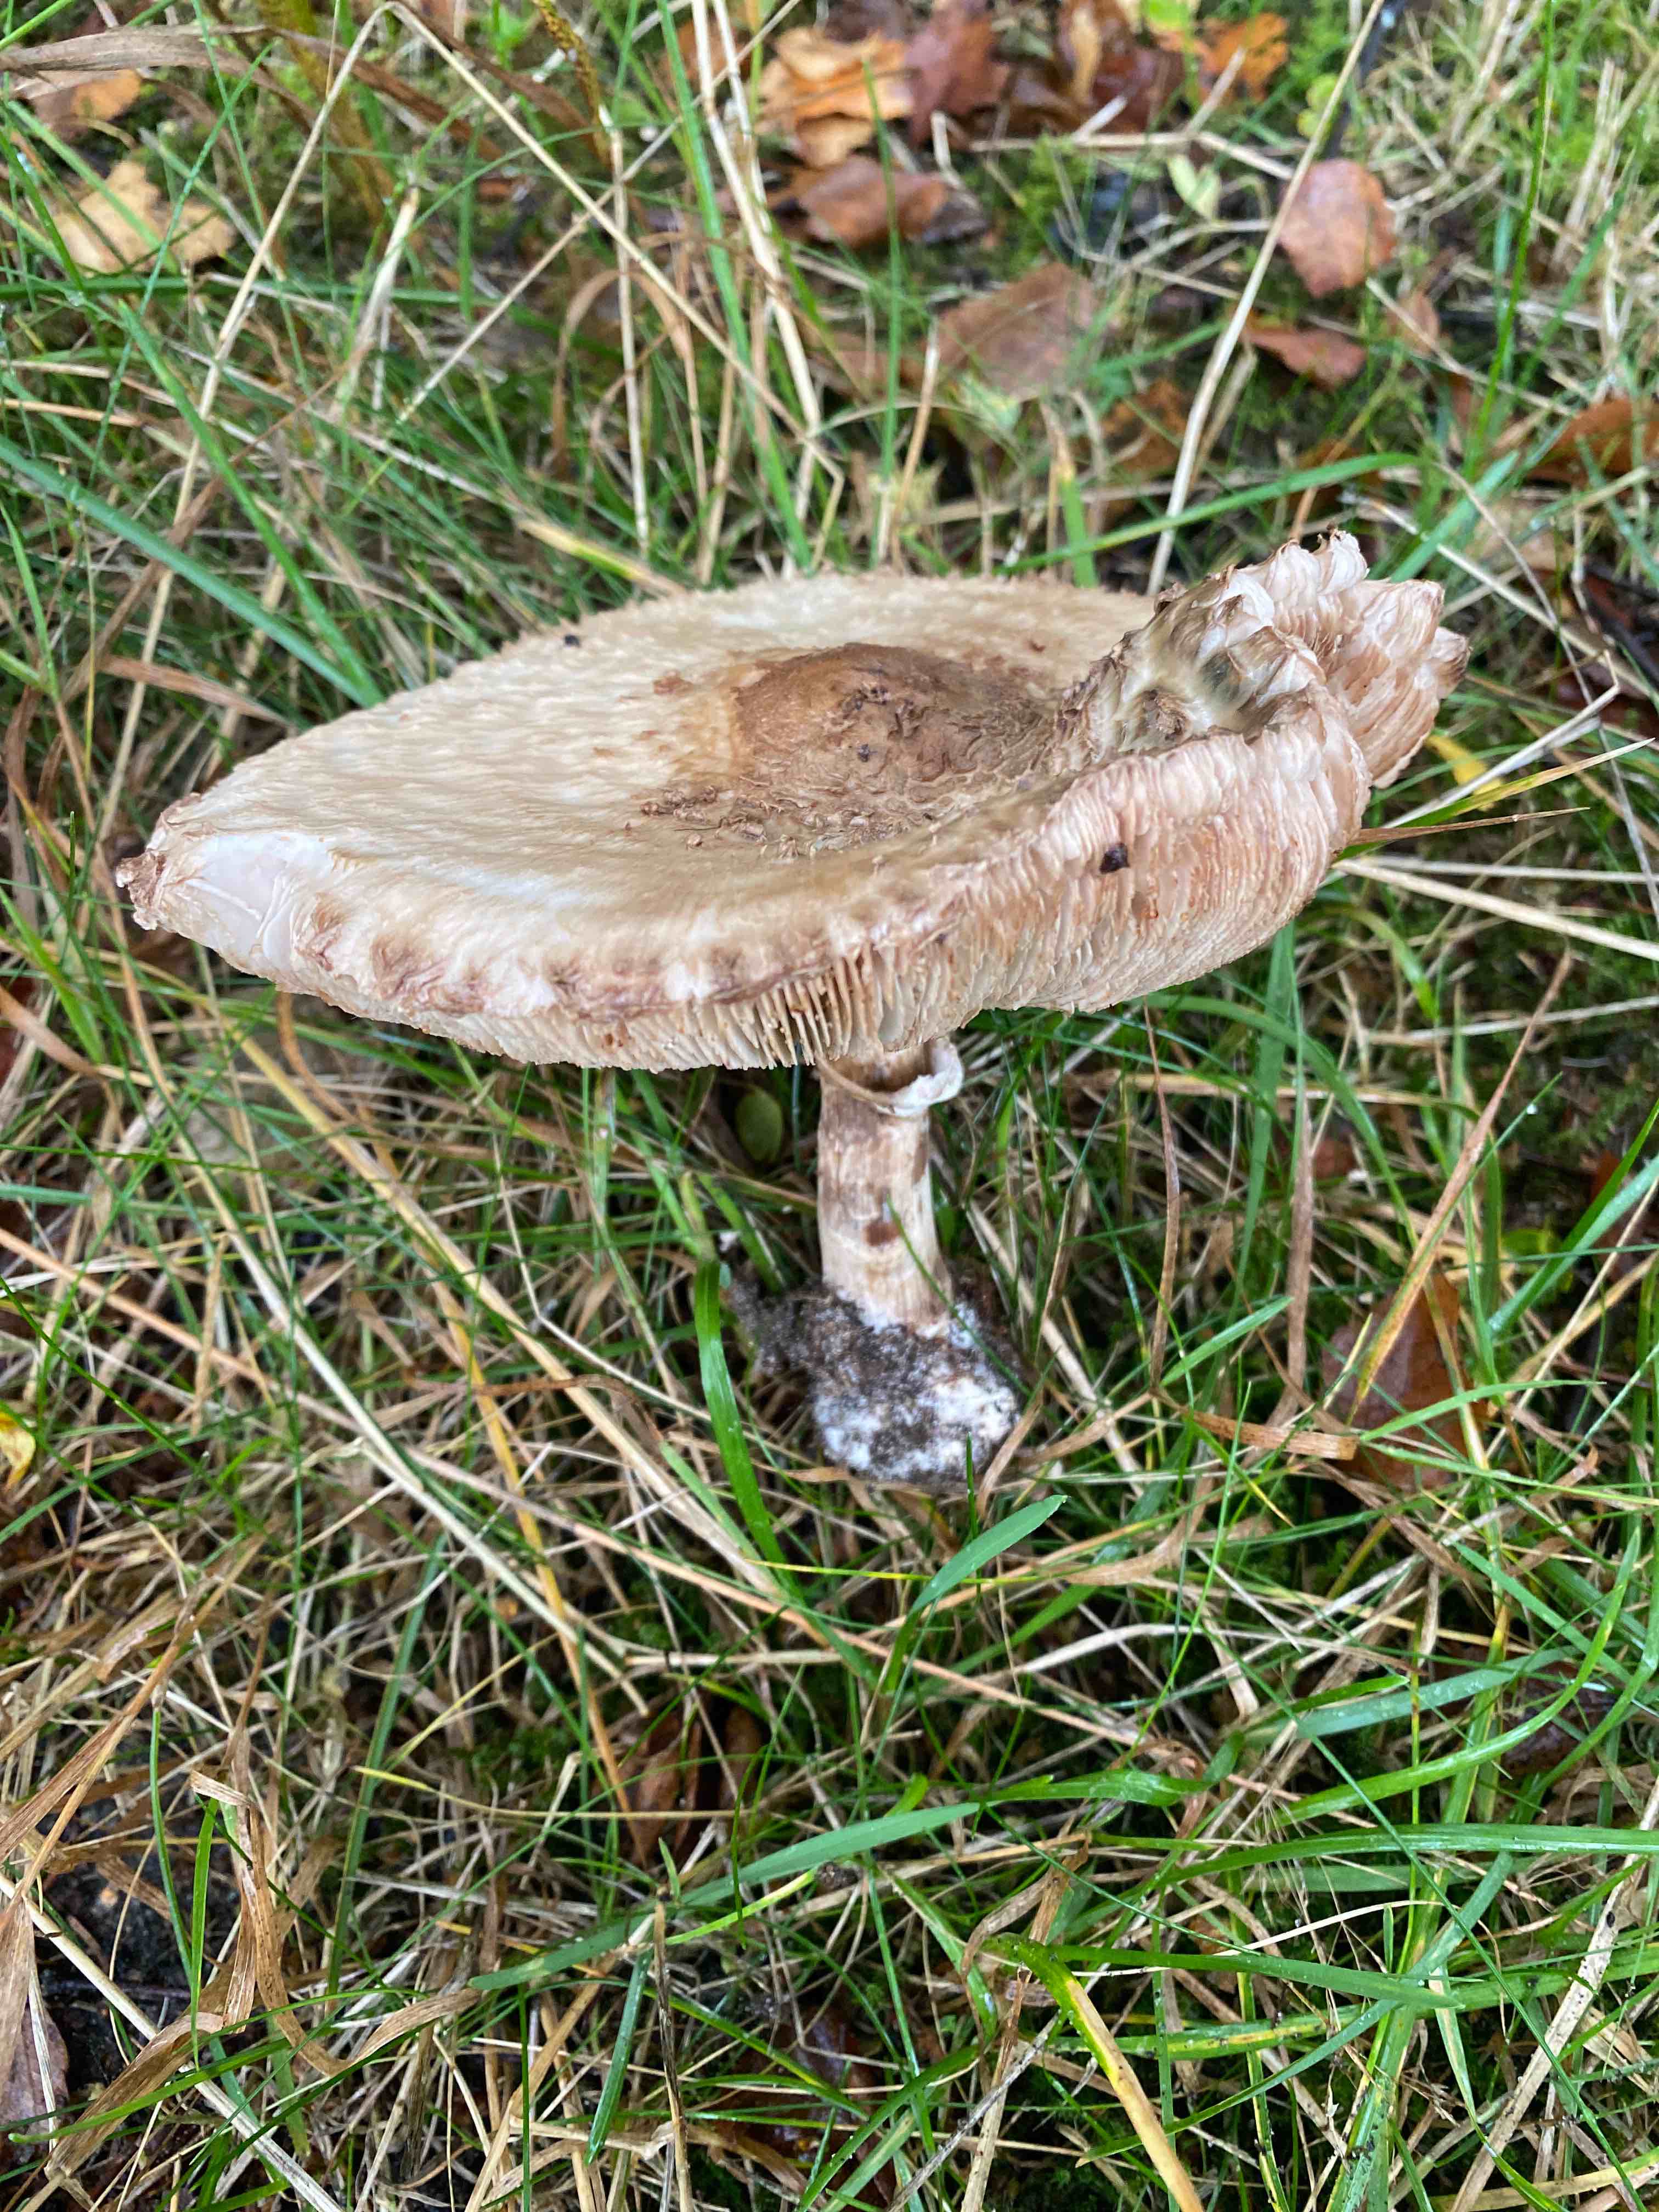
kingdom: Fungi
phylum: Basidiomycota
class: Agaricomycetes
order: Agaricales
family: Agaricaceae
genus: Chlorophyllum
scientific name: Chlorophyllum
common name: rabarberhat
